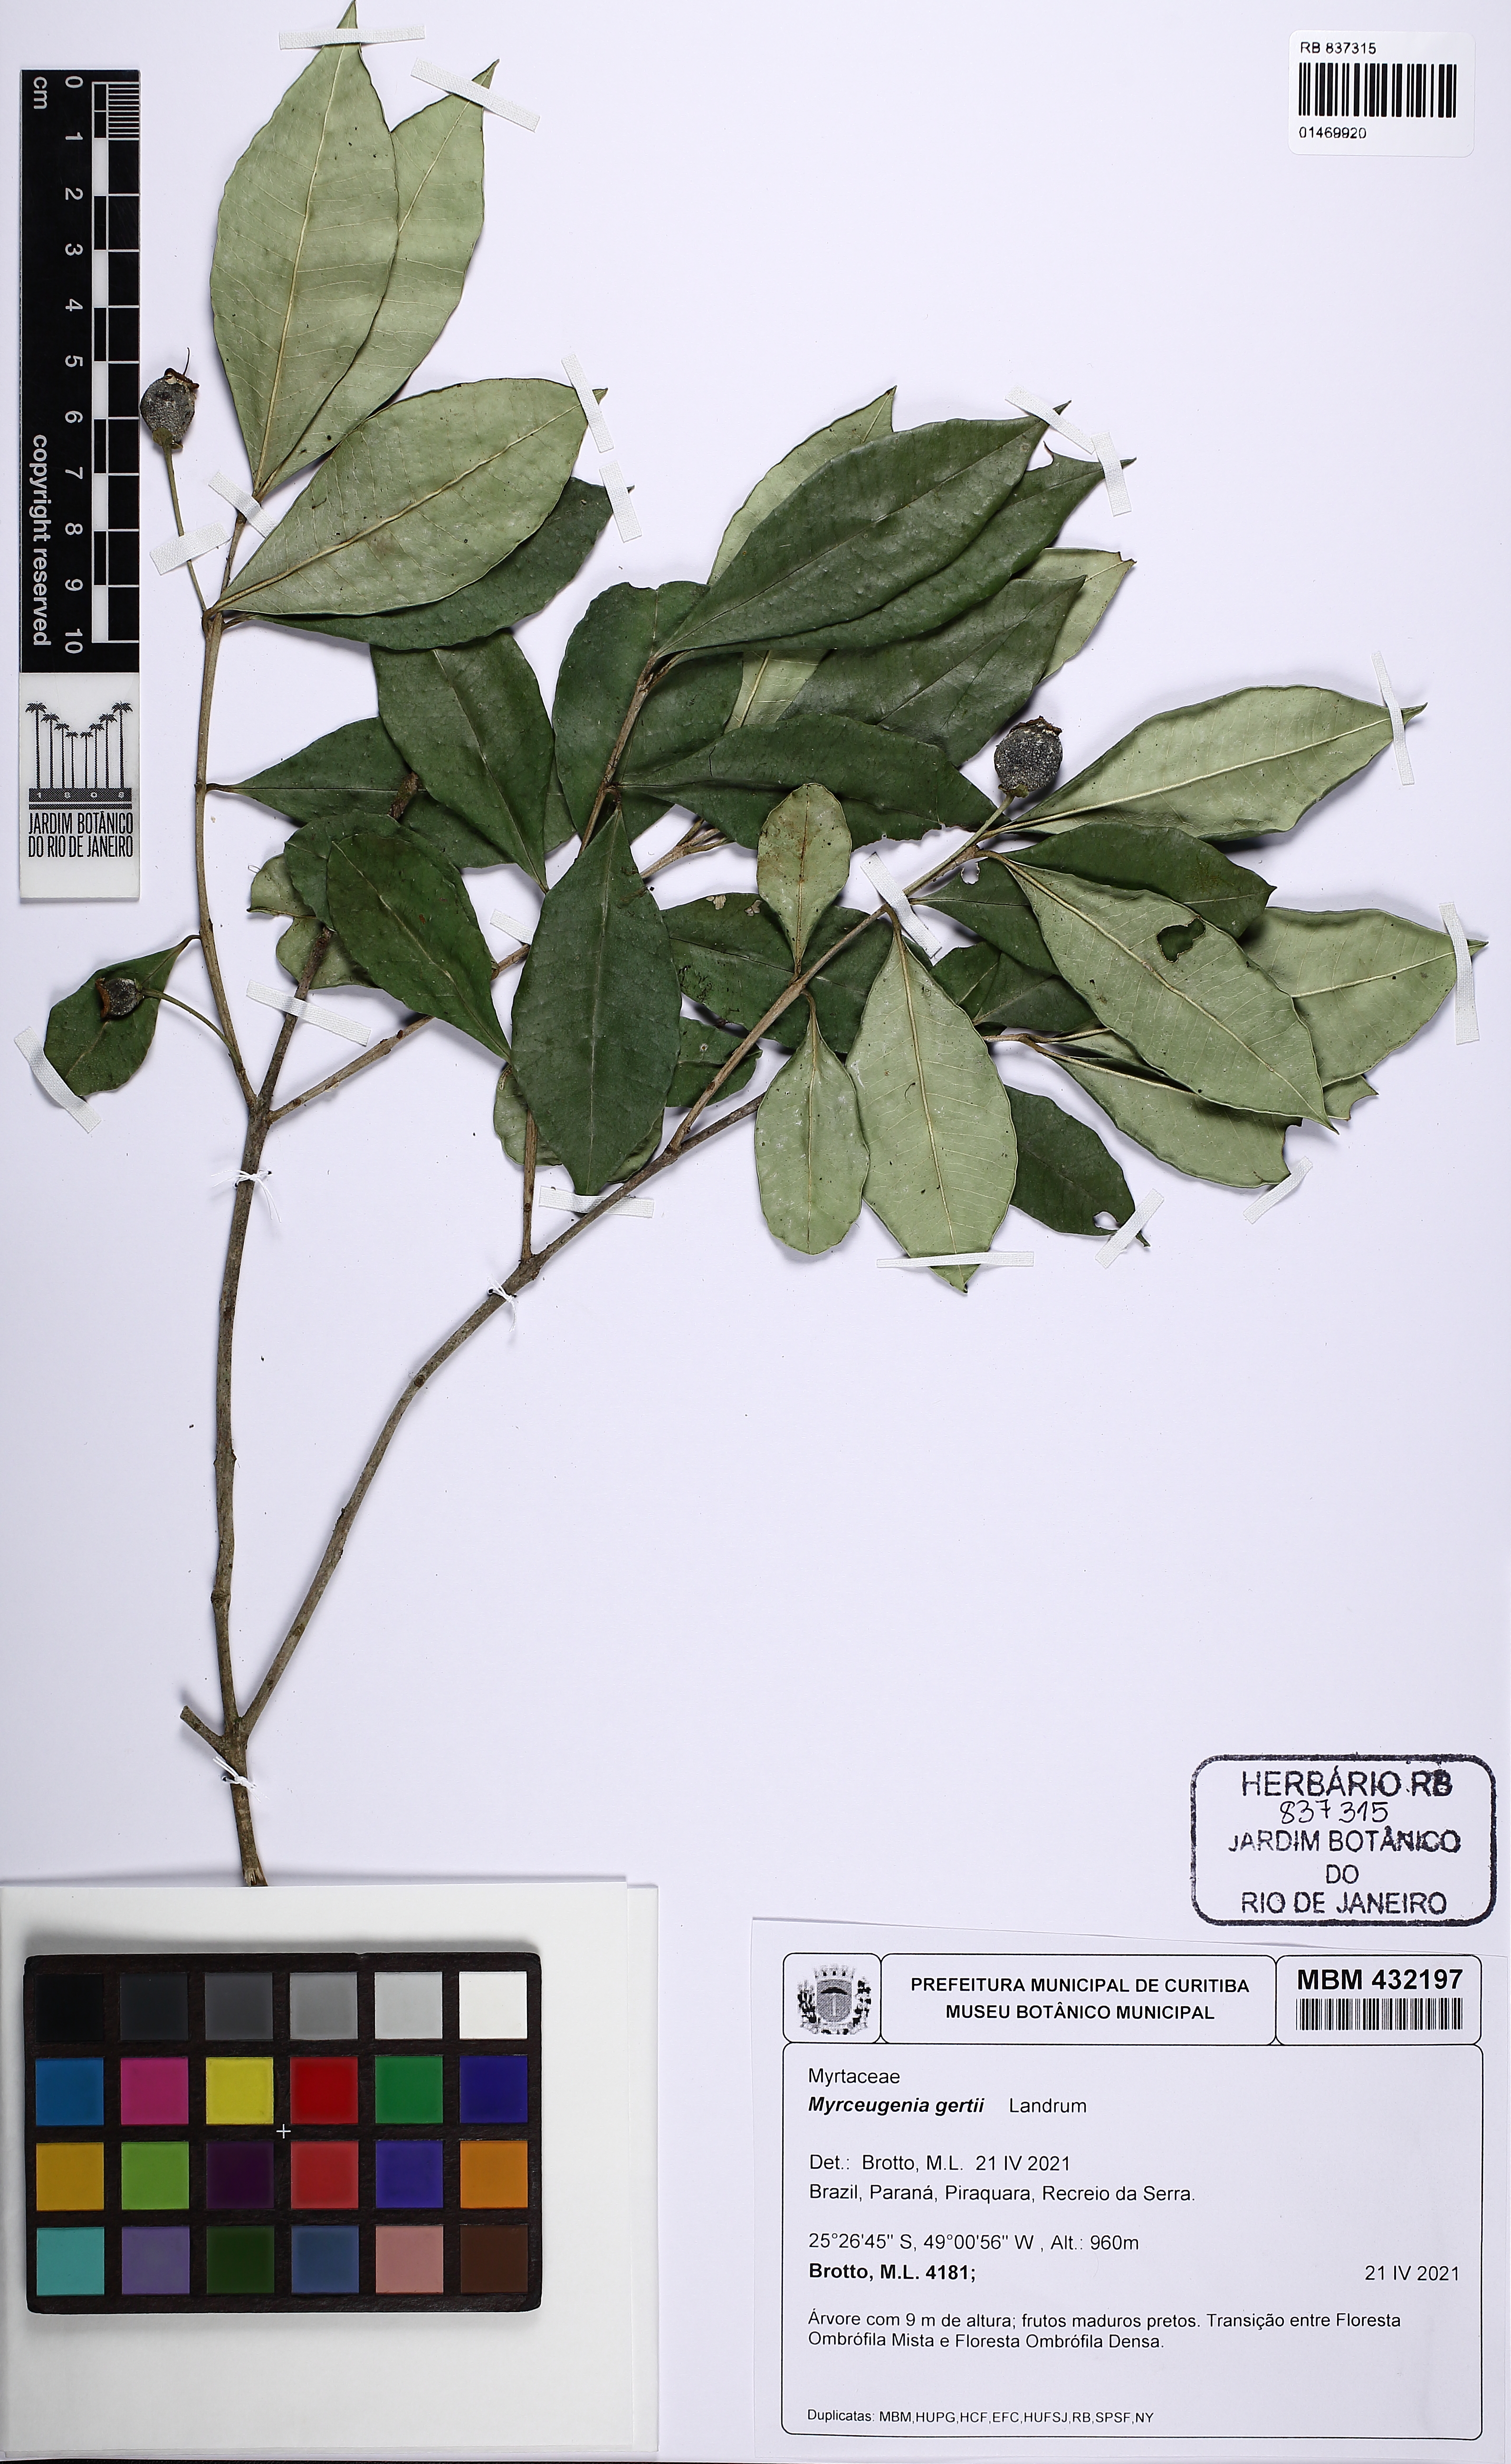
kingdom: Plantae
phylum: Tracheophyta
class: Magnoliopsida
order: Myrtales
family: Myrtaceae
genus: Myrceugenia
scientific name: Myrceugenia gertii
